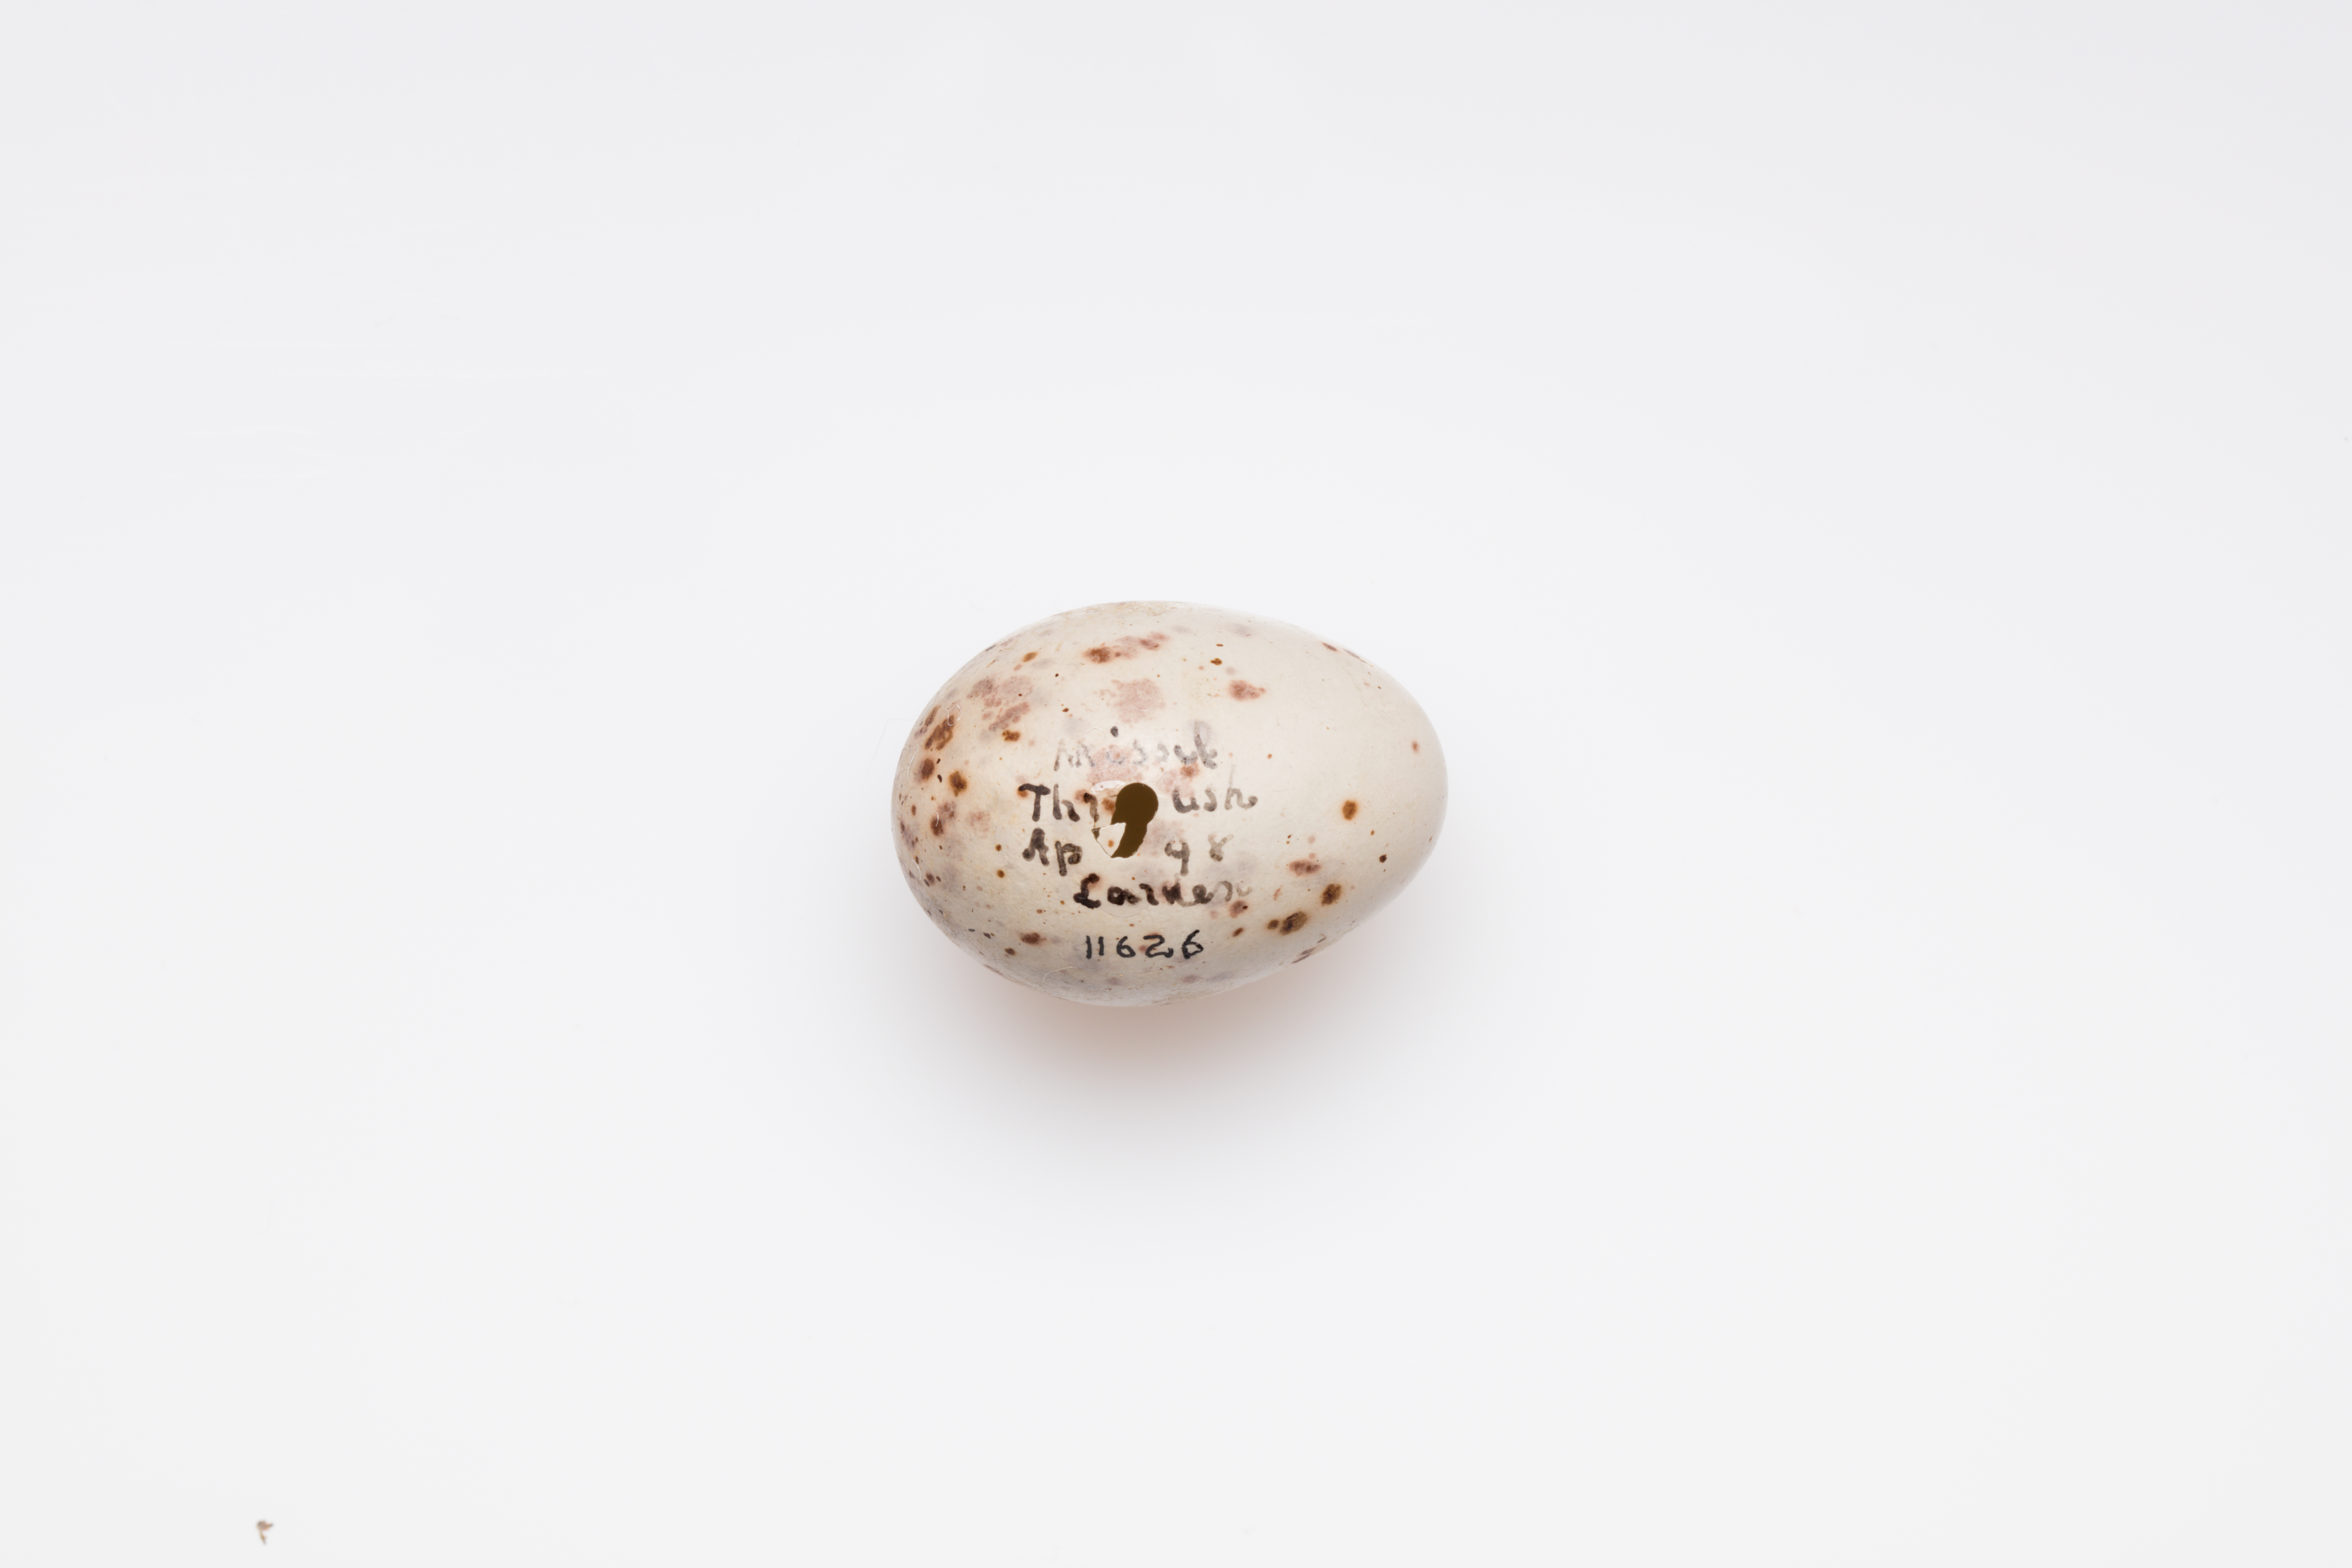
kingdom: Animalia
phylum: Chordata
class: Aves
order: Passeriformes
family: Turdidae
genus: Turdus
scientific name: Turdus viscivorus
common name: Mistle thrush
